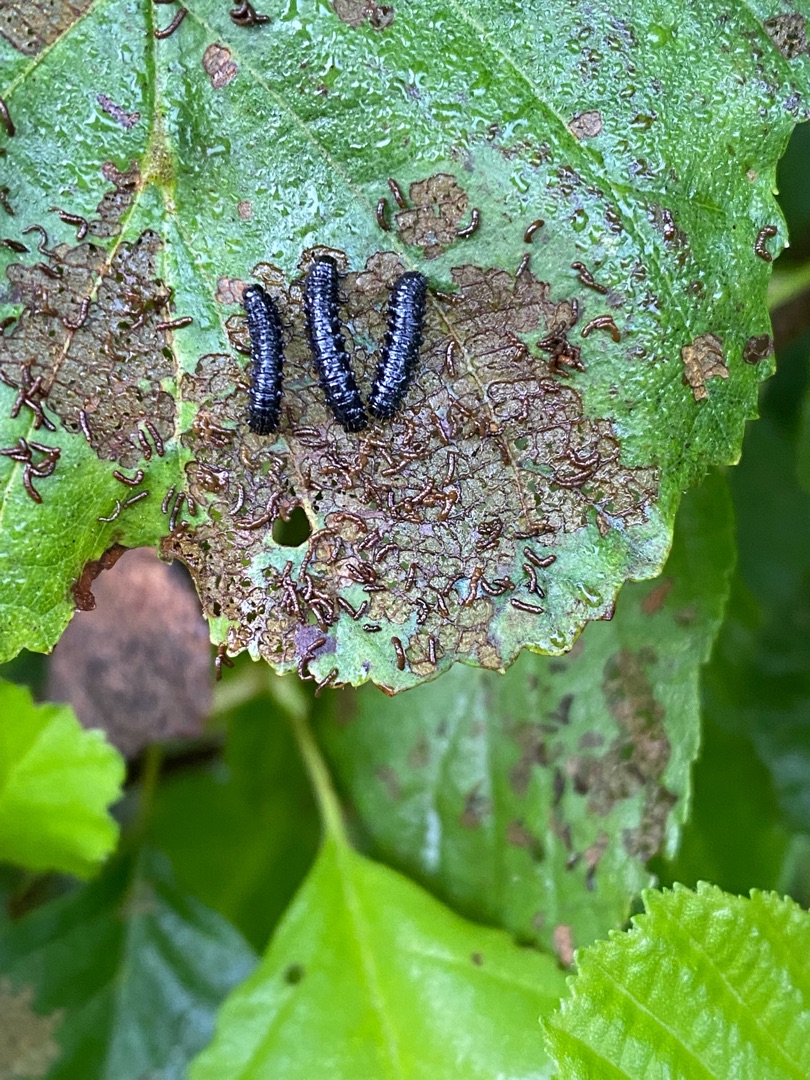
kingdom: Animalia
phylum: Arthropoda
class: Insecta
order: Coleoptera
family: Chrysomelidae
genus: Agelastica
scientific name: Agelastica alni
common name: Ellebladbille
